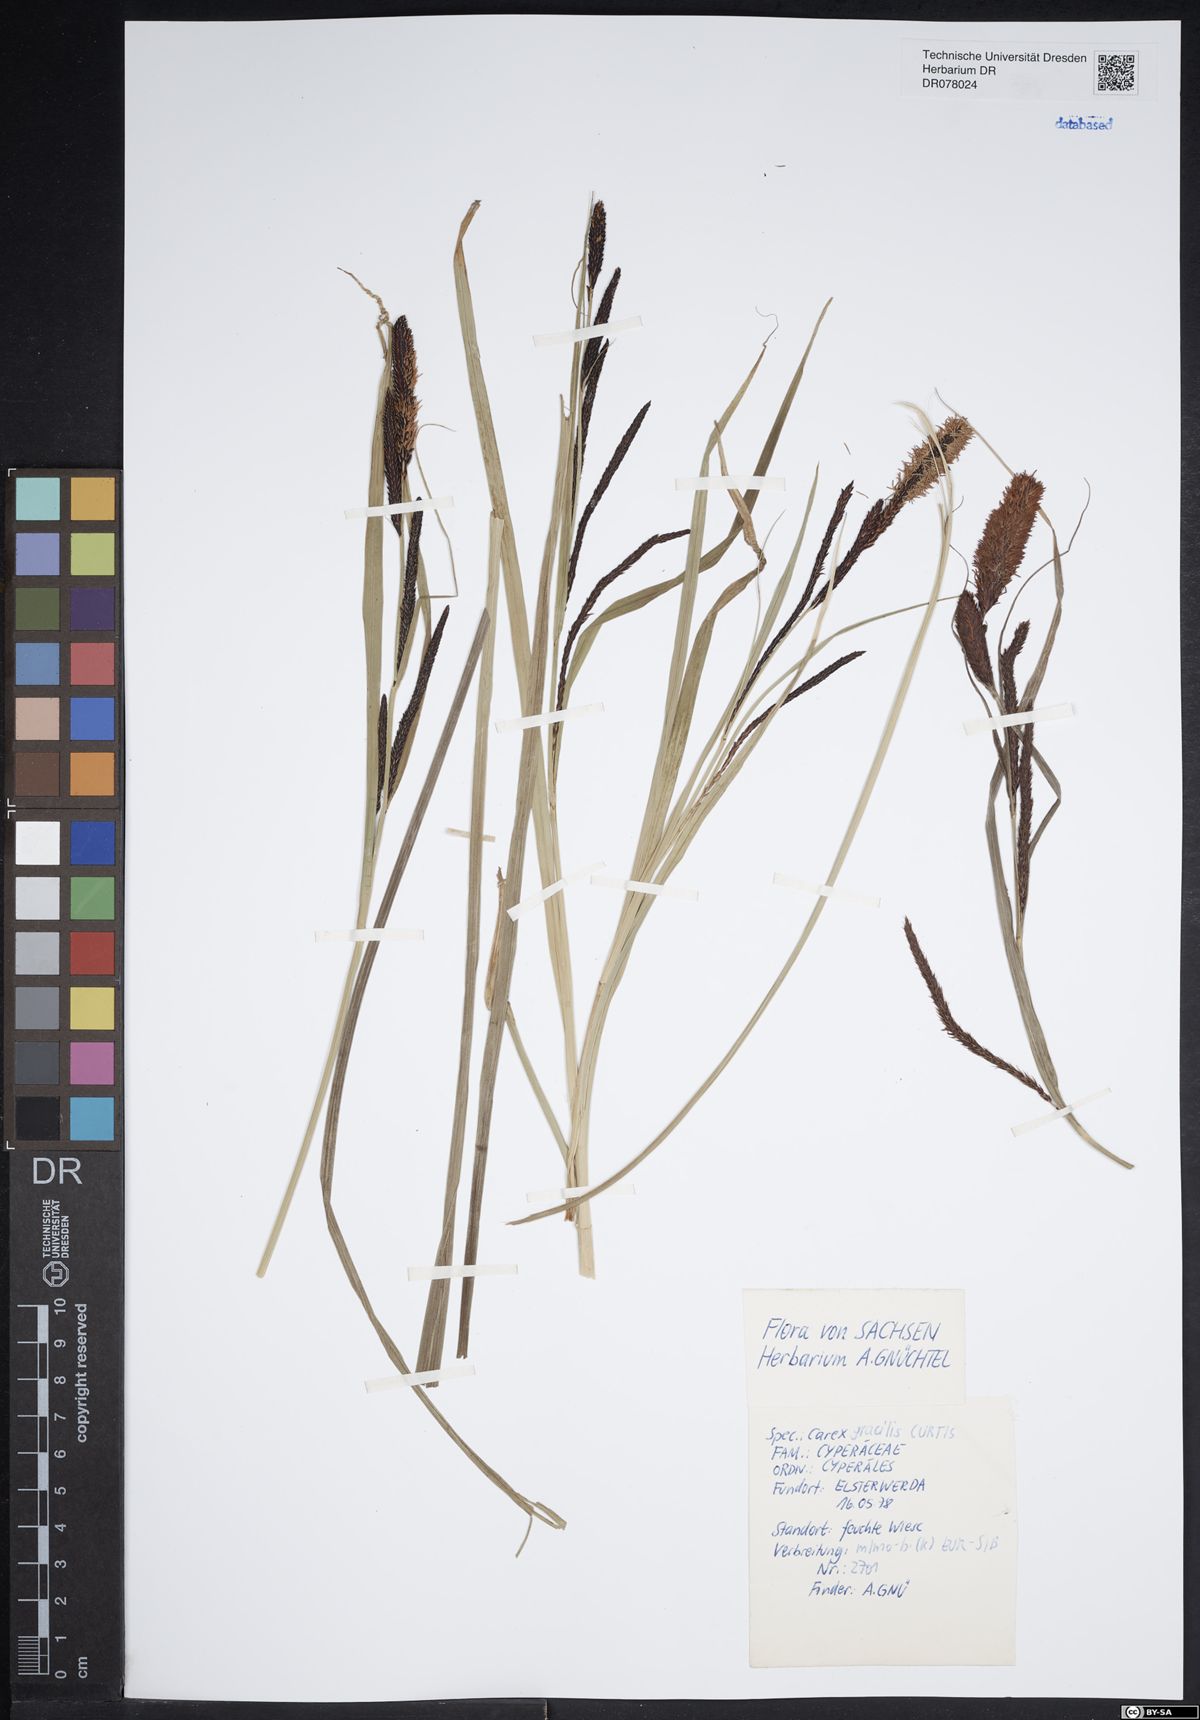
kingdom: Plantae
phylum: Tracheophyta
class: Liliopsida
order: Poales
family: Cyperaceae
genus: Carex
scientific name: Carex acuta
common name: Slender tufted-sedge
